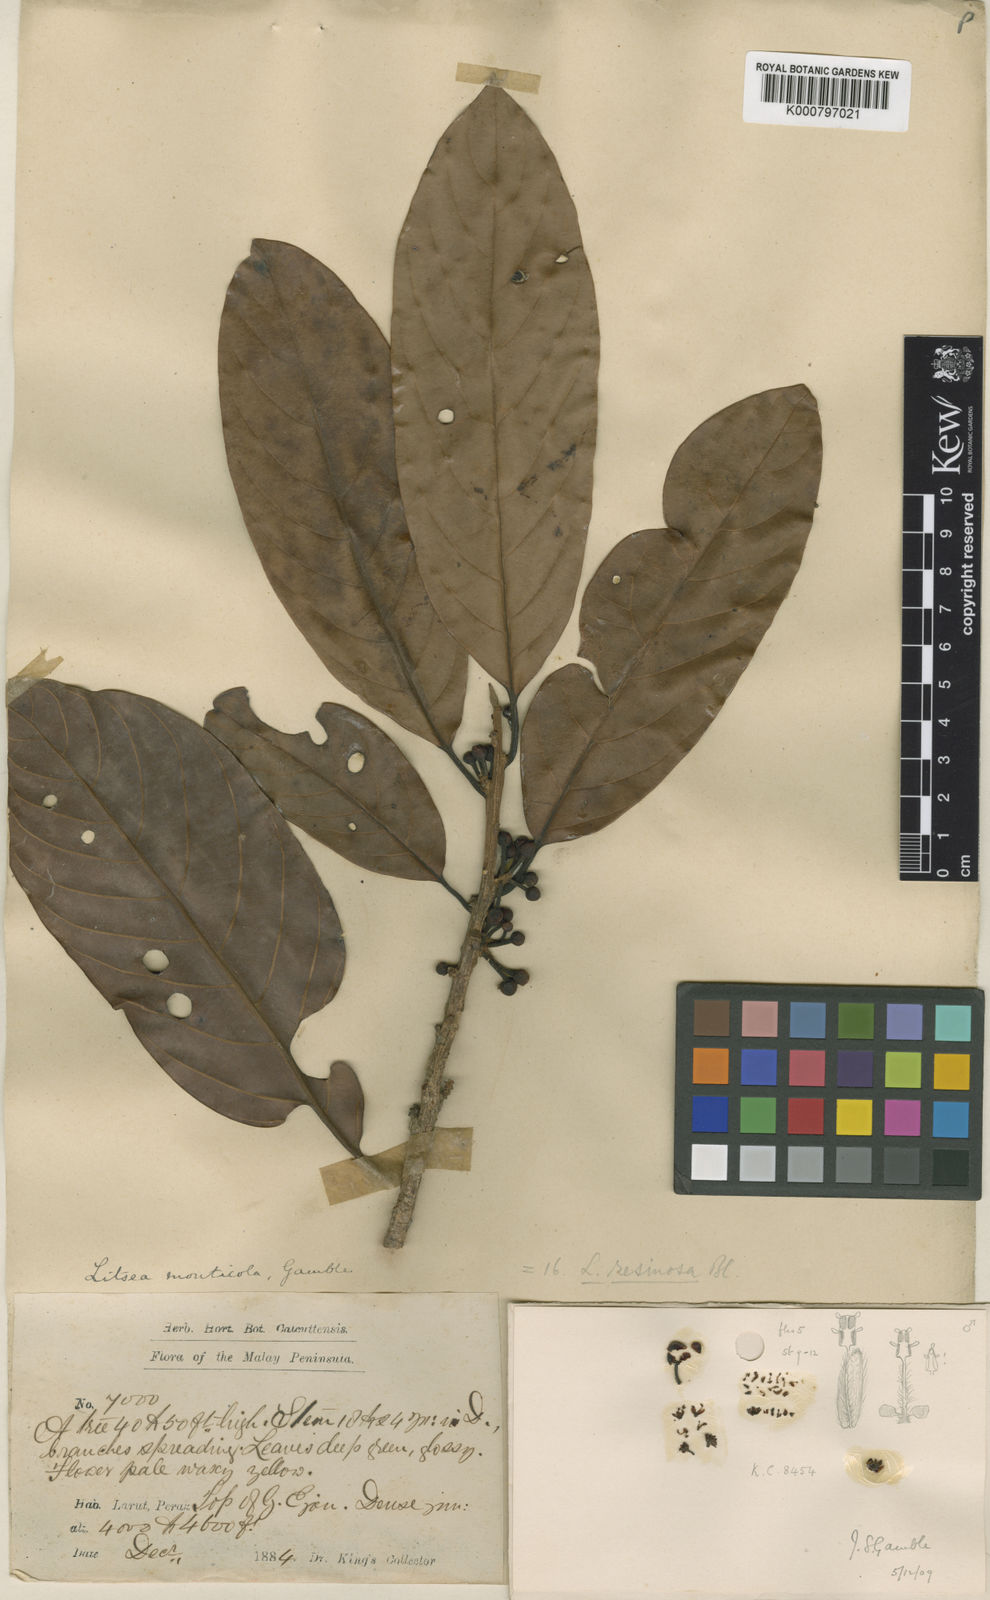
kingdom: Plantae
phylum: Tracheophyta
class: Magnoliopsida
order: Laurales
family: Lauraceae
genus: Litsea
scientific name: Litsea resinosa
